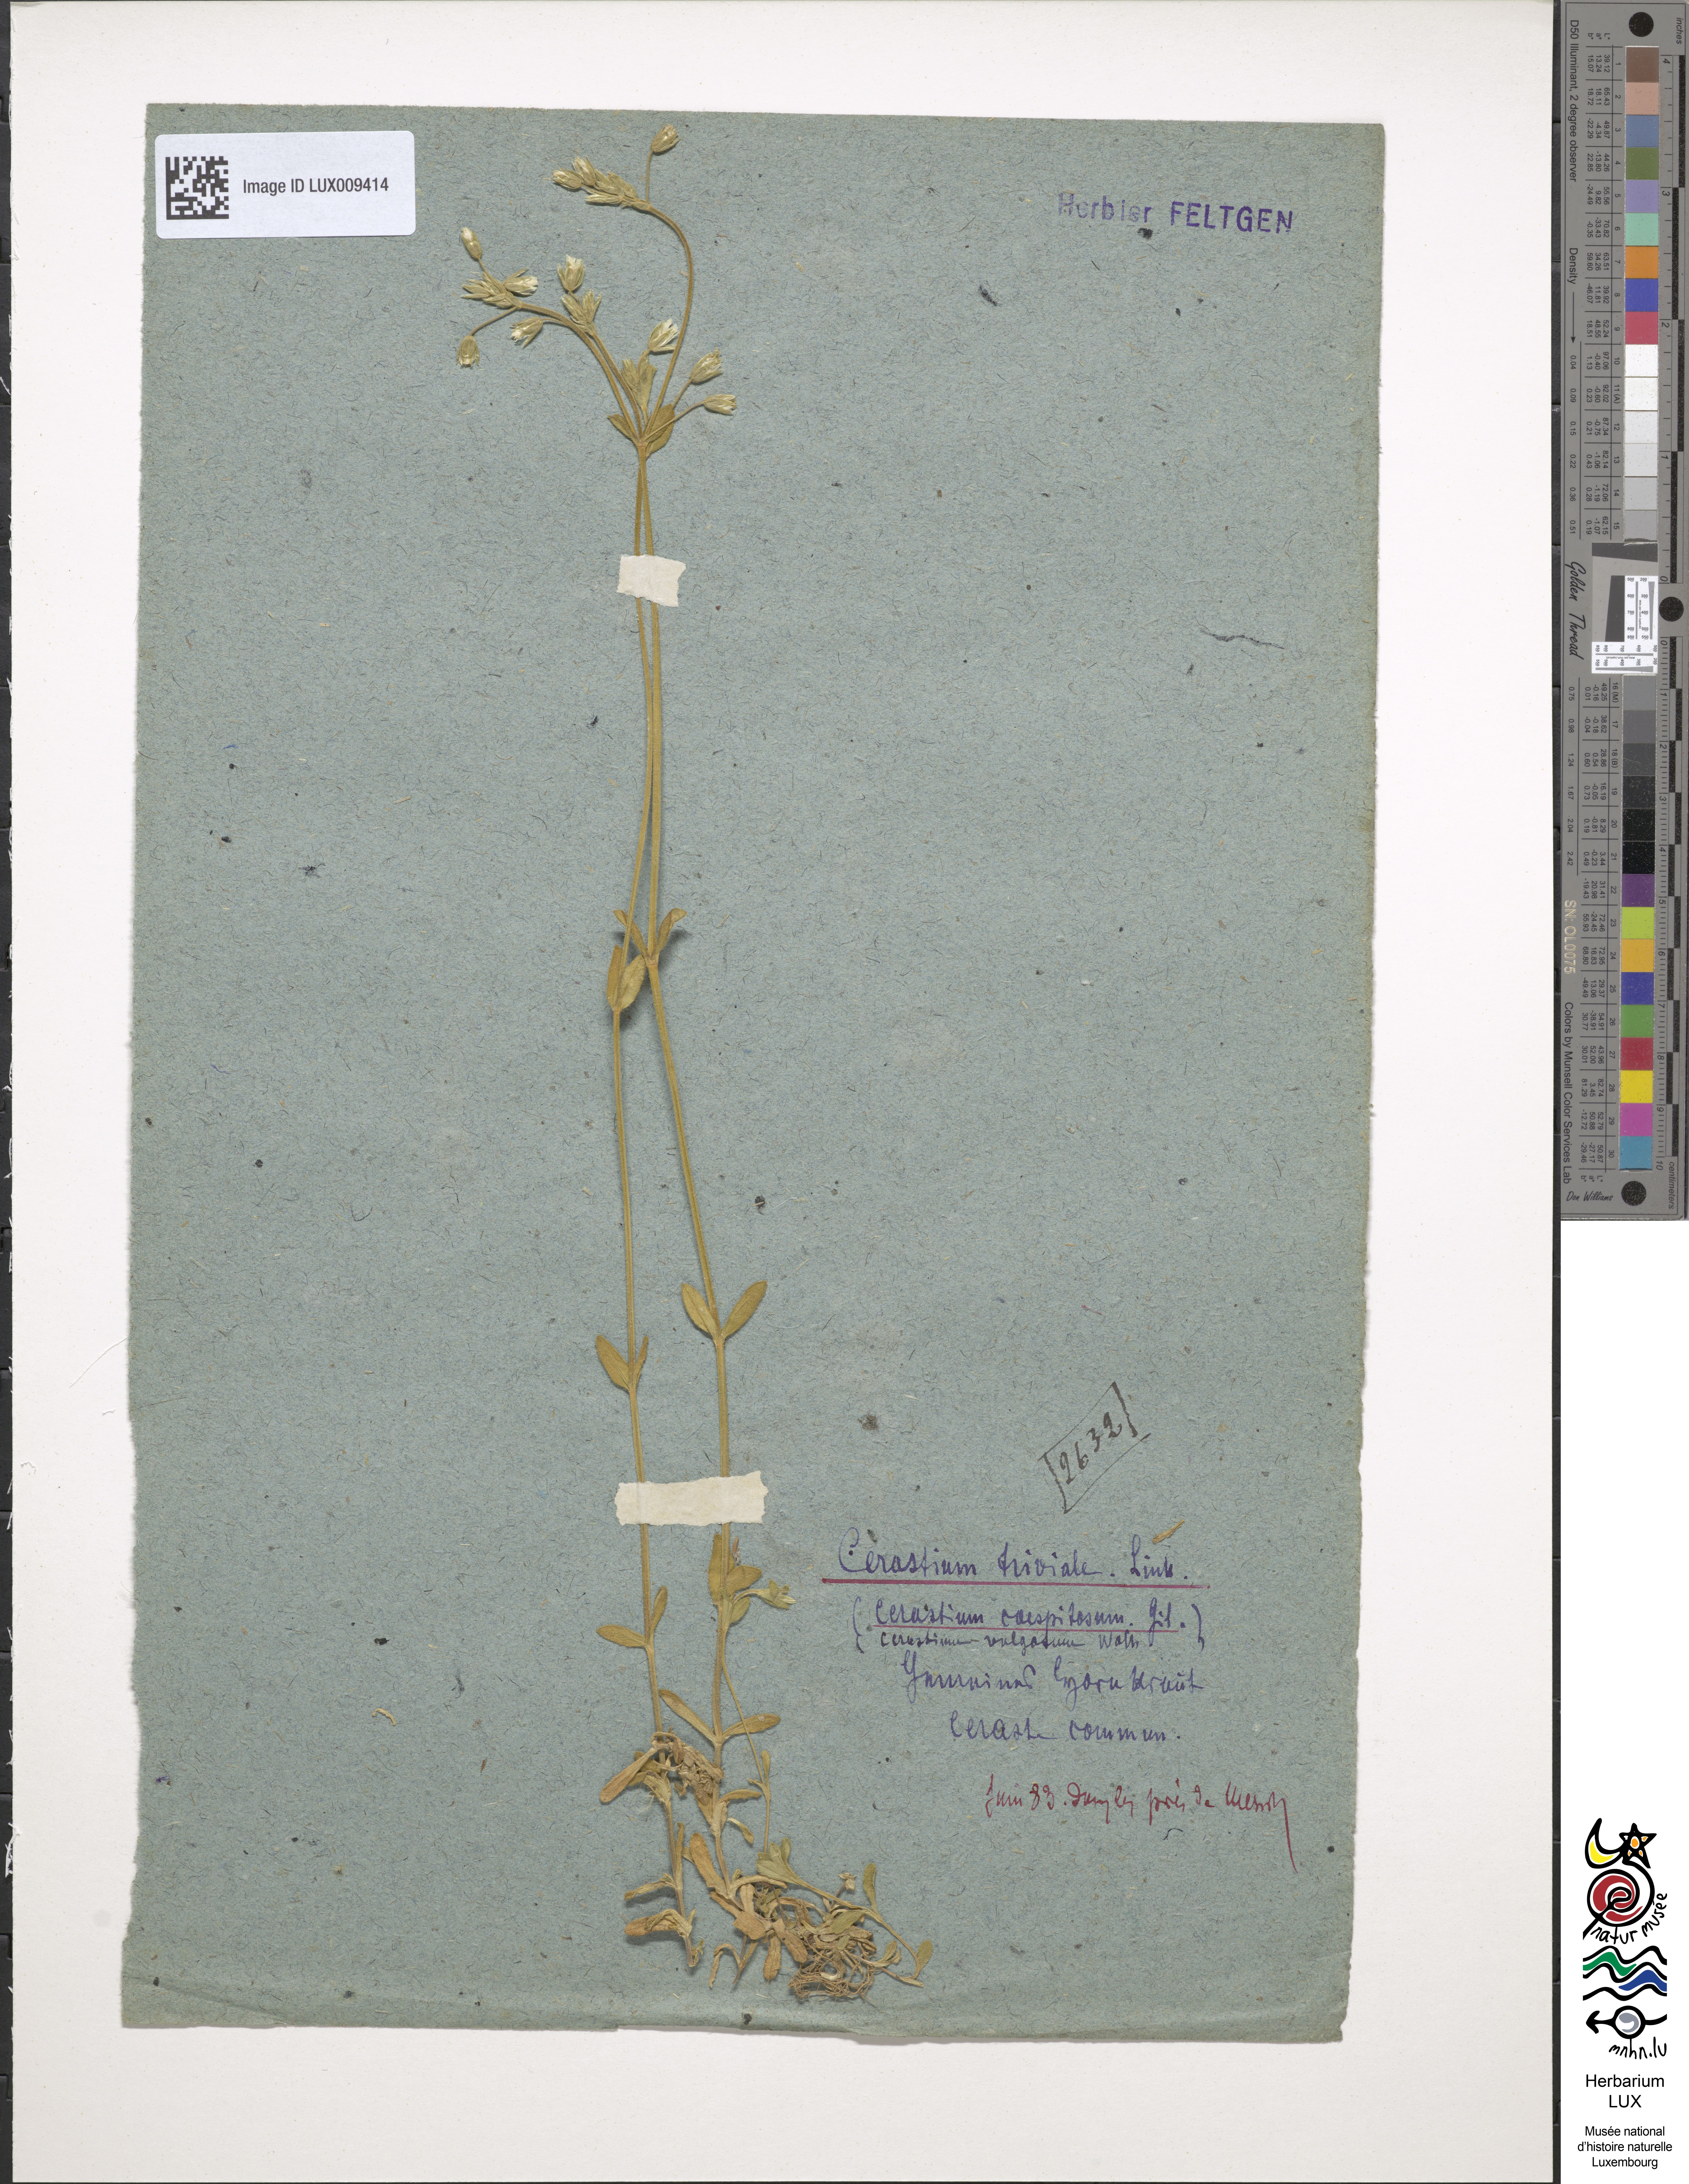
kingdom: Plantae
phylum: Tracheophyta
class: Magnoliopsida
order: Caryophyllales
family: Caryophyllaceae
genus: Cerastium
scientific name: Cerastium holosteoides
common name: Big chickweed
